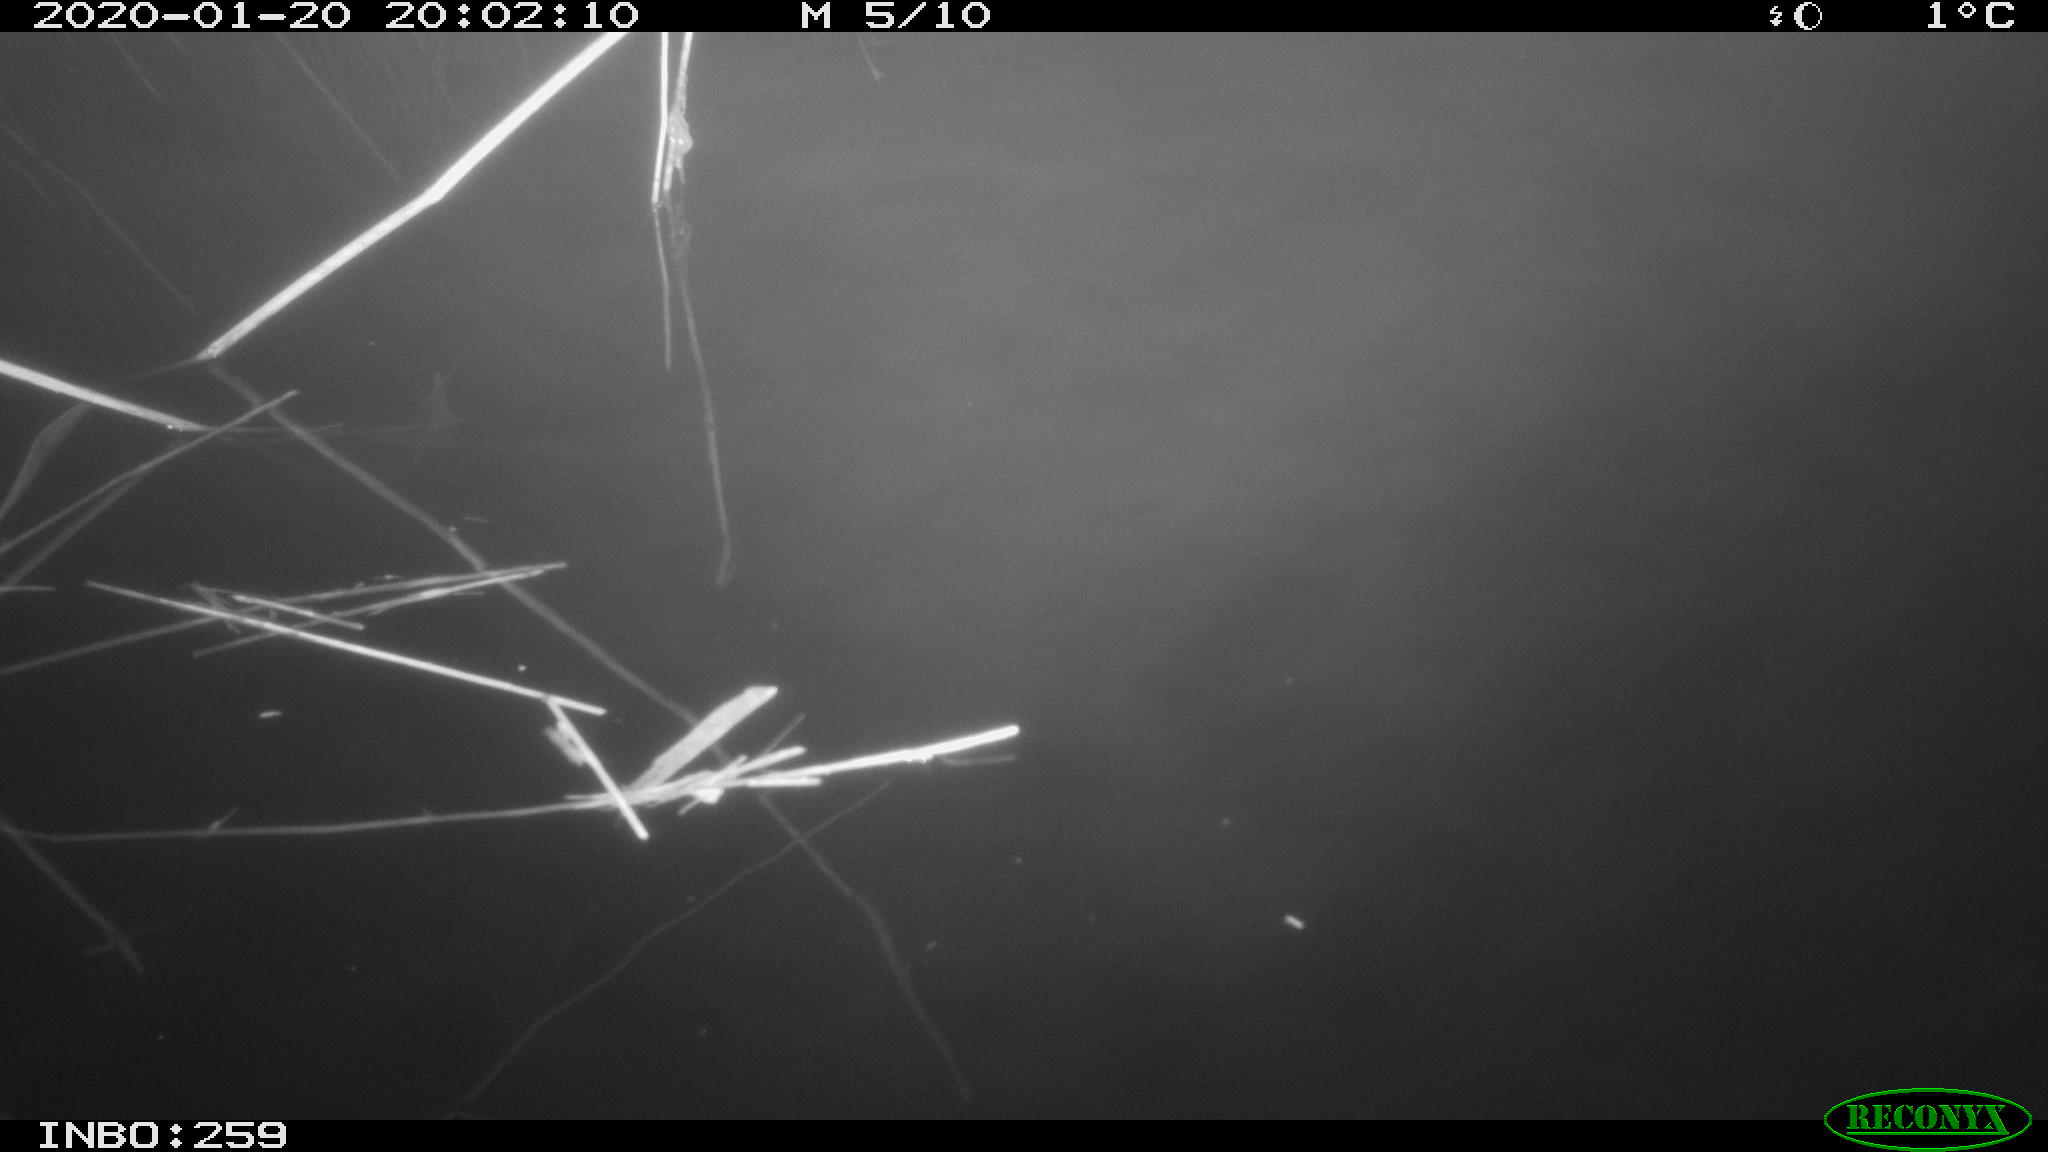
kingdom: Animalia
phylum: Chordata
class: Aves
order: Gruiformes
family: Rallidae
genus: Gallinula
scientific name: Gallinula chloropus
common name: Common moorhen
